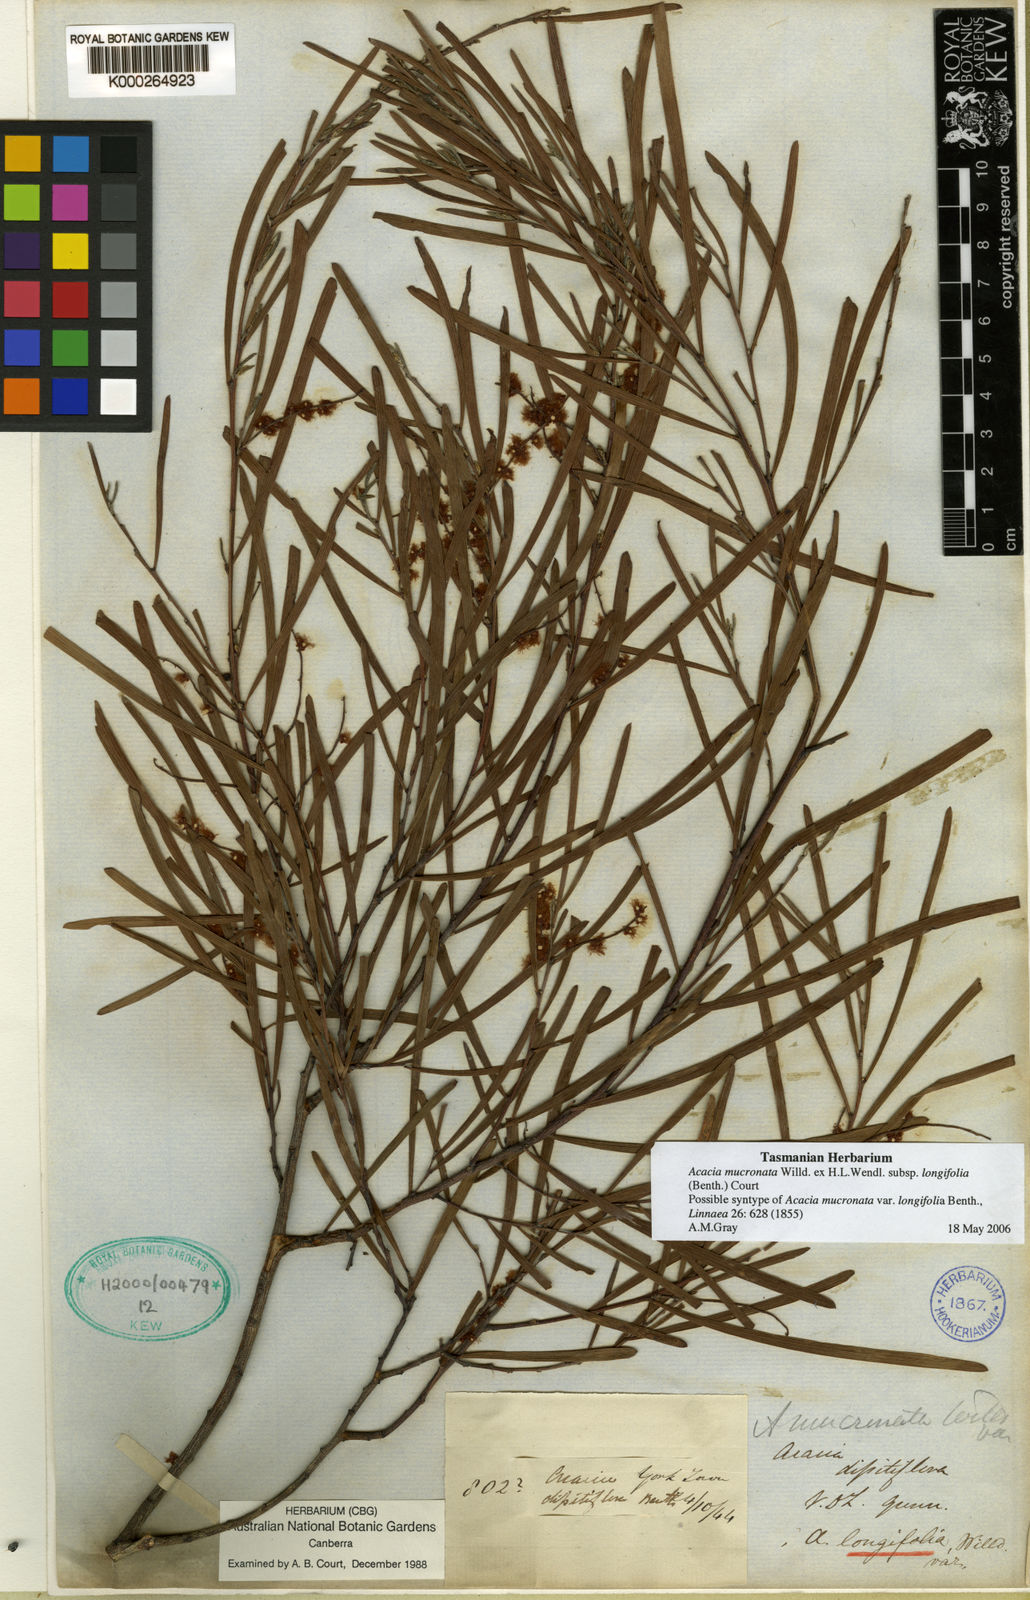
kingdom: Plantae
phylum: Tracheophyta
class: Magnoliopsida
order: Fabales
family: Fabaceae
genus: Acacia
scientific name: Acacia
